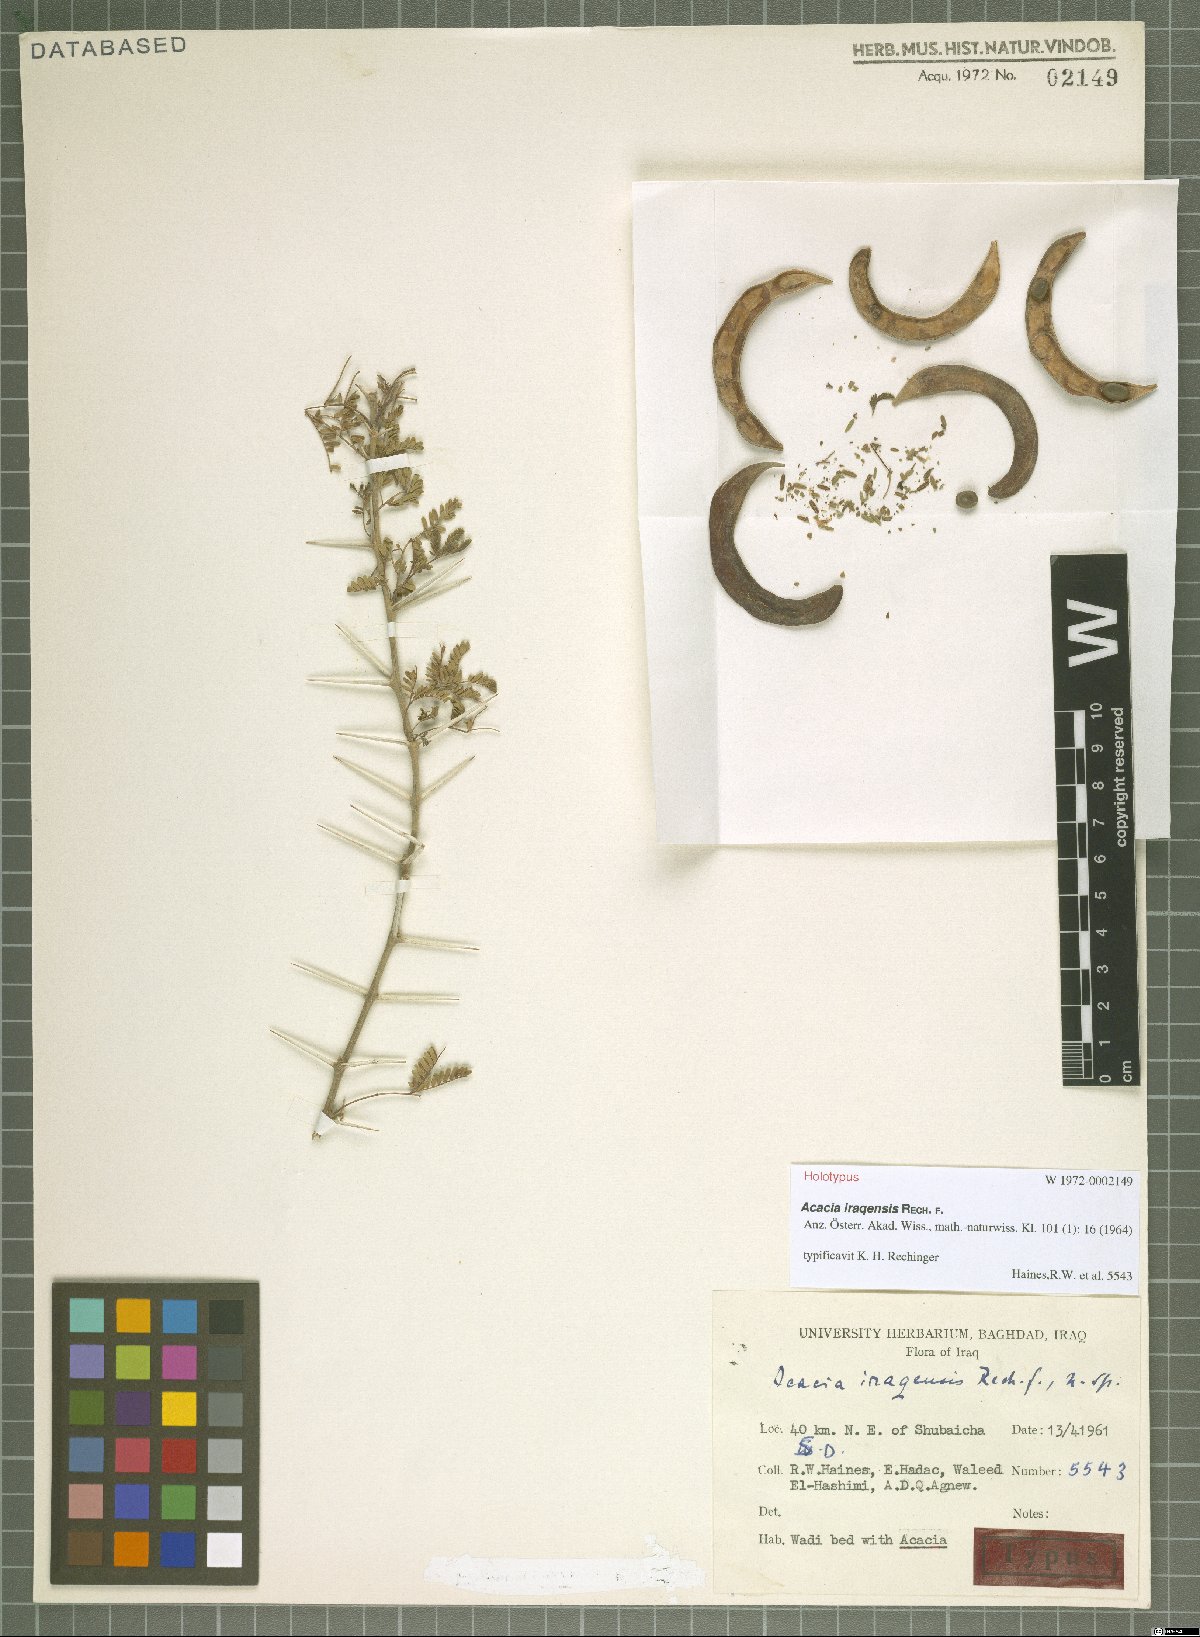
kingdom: Plantae
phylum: Tracheophyta
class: Magnoliopsida
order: Fabales
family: Fabaceae
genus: Vachellia
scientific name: Vachellia gerrardii
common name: Redthorn
